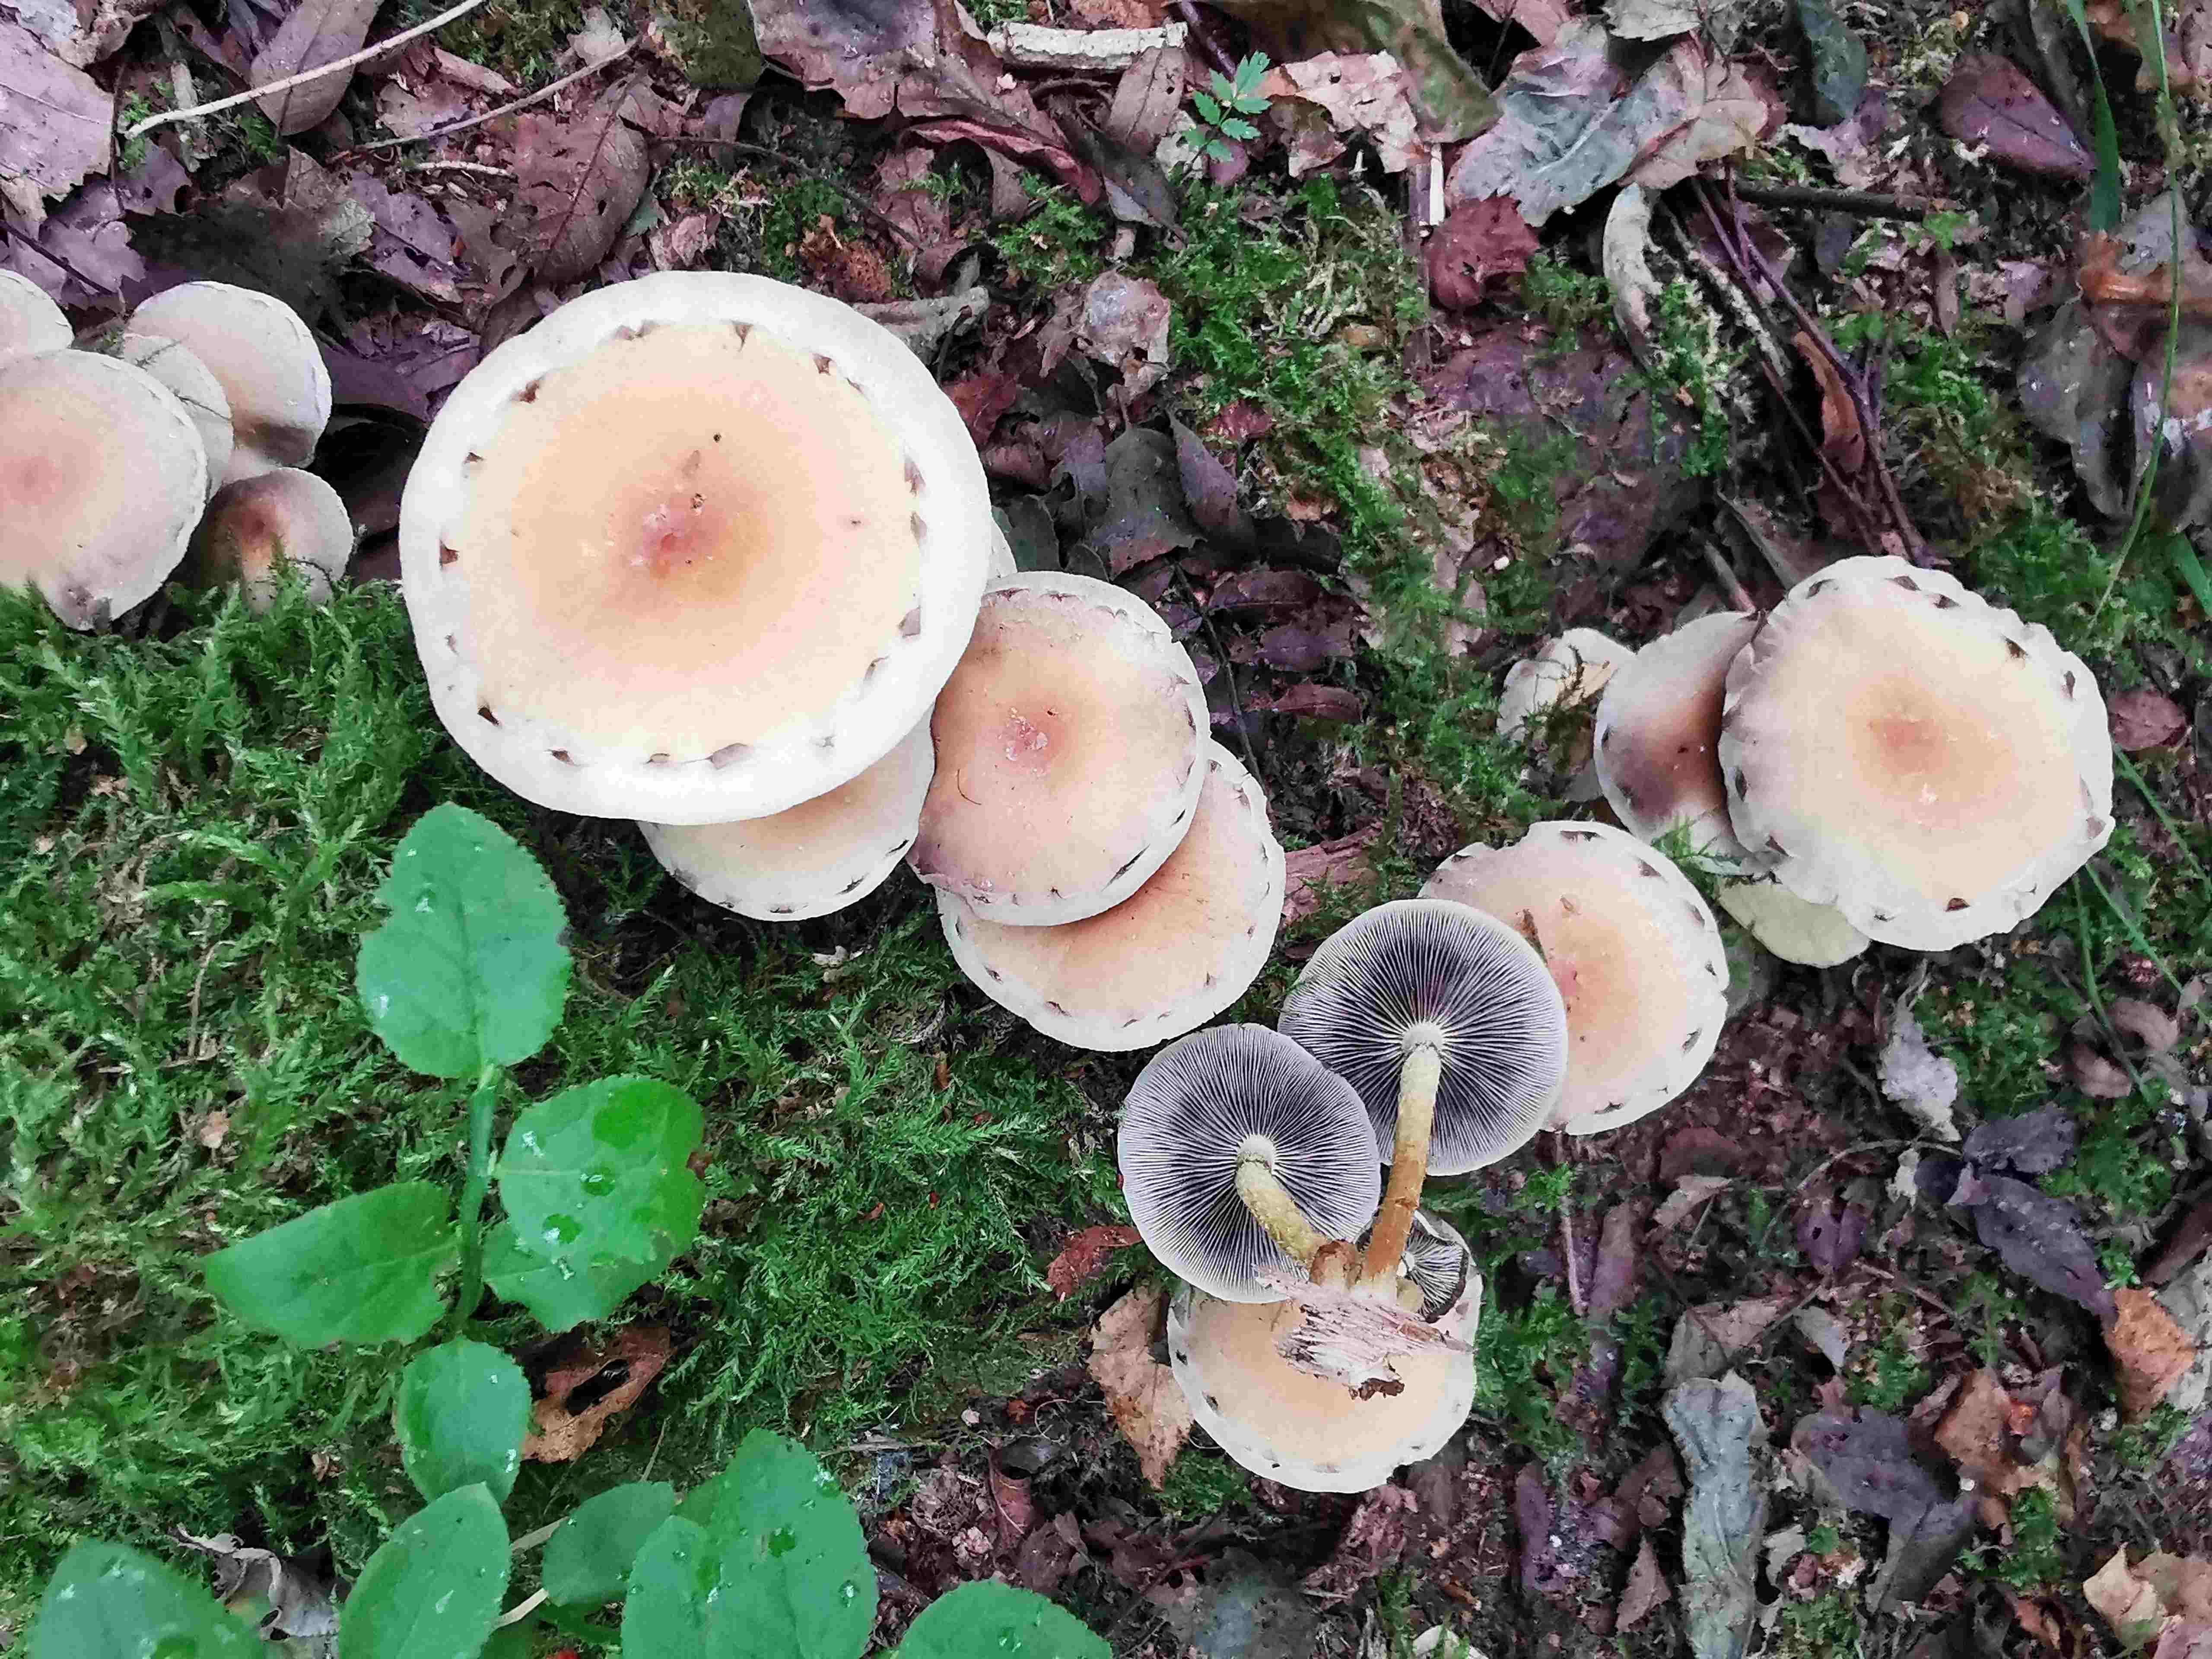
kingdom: Fungi
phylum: Basidiomycota
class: Agaricomycetes
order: Agaricales
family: Strophariaceae
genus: Hypholoma
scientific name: Hypholoma fasciculare
